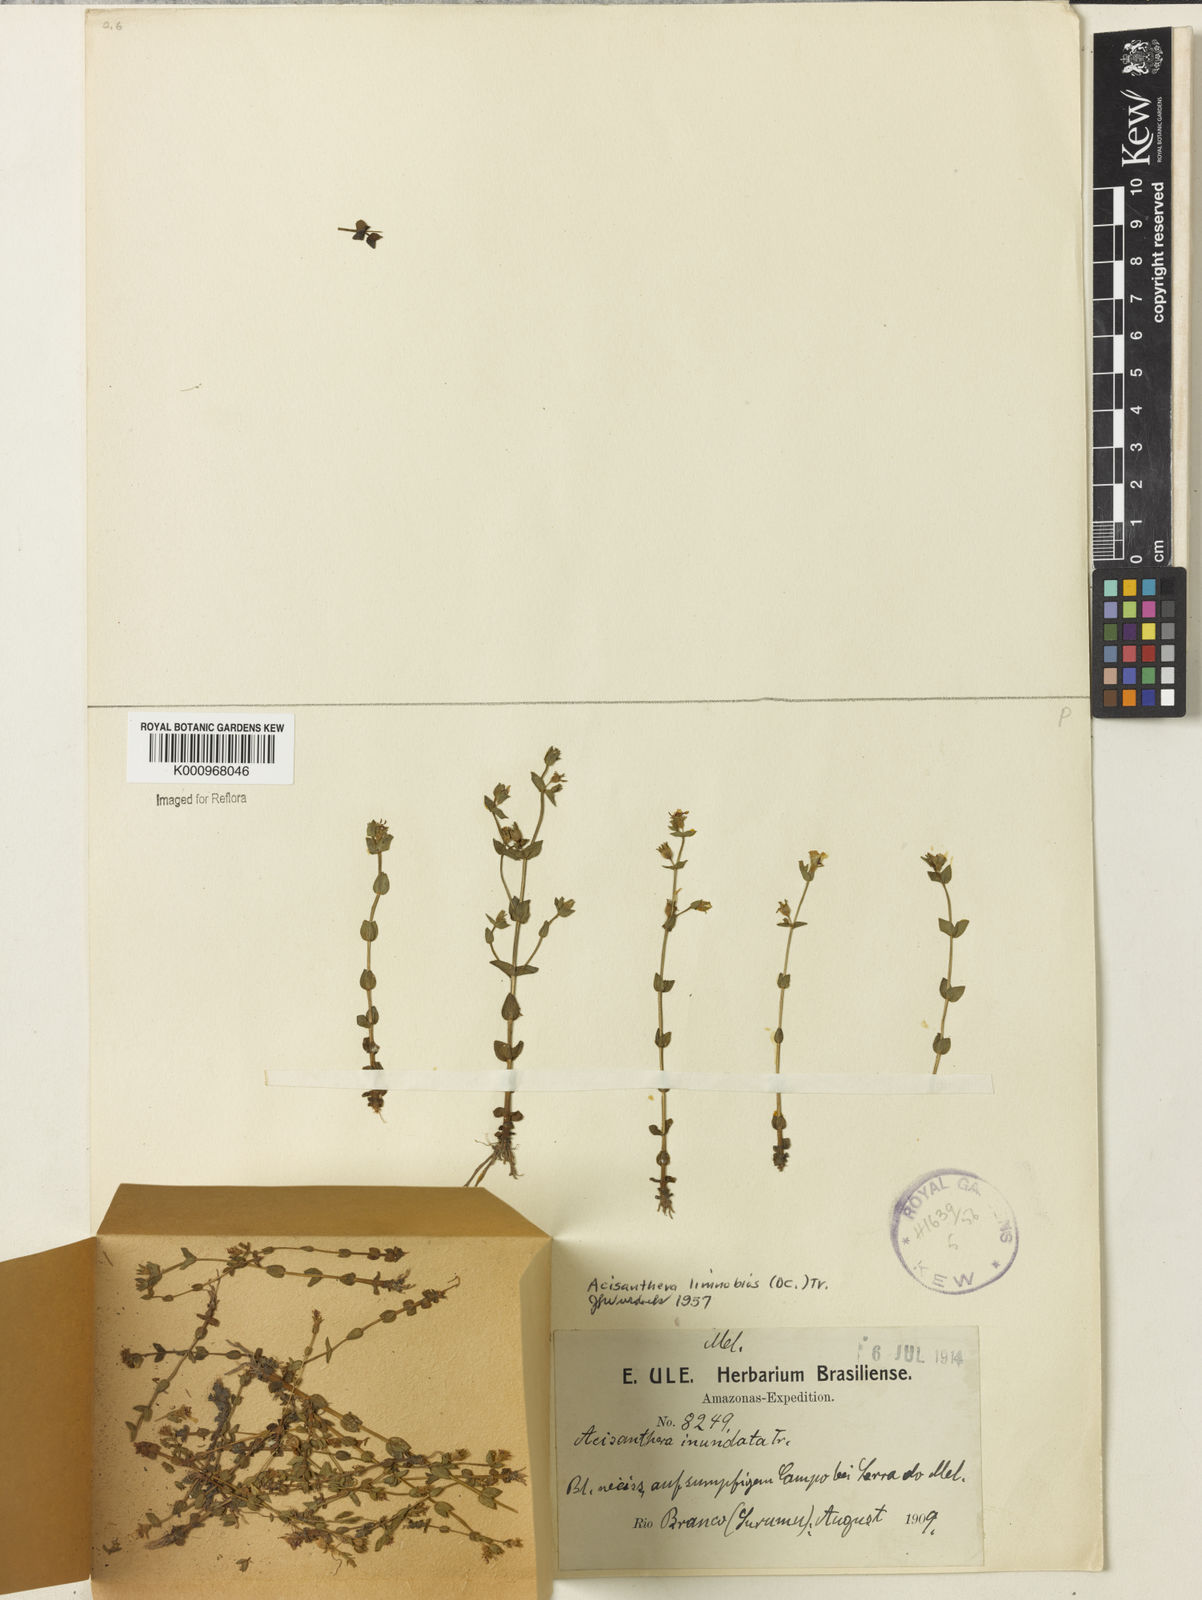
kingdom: Plantae
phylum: Tracheophyta
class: Magnoliopsida
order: Myrtales
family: Melastomataceae
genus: Acisanthera
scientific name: Acisanthera
